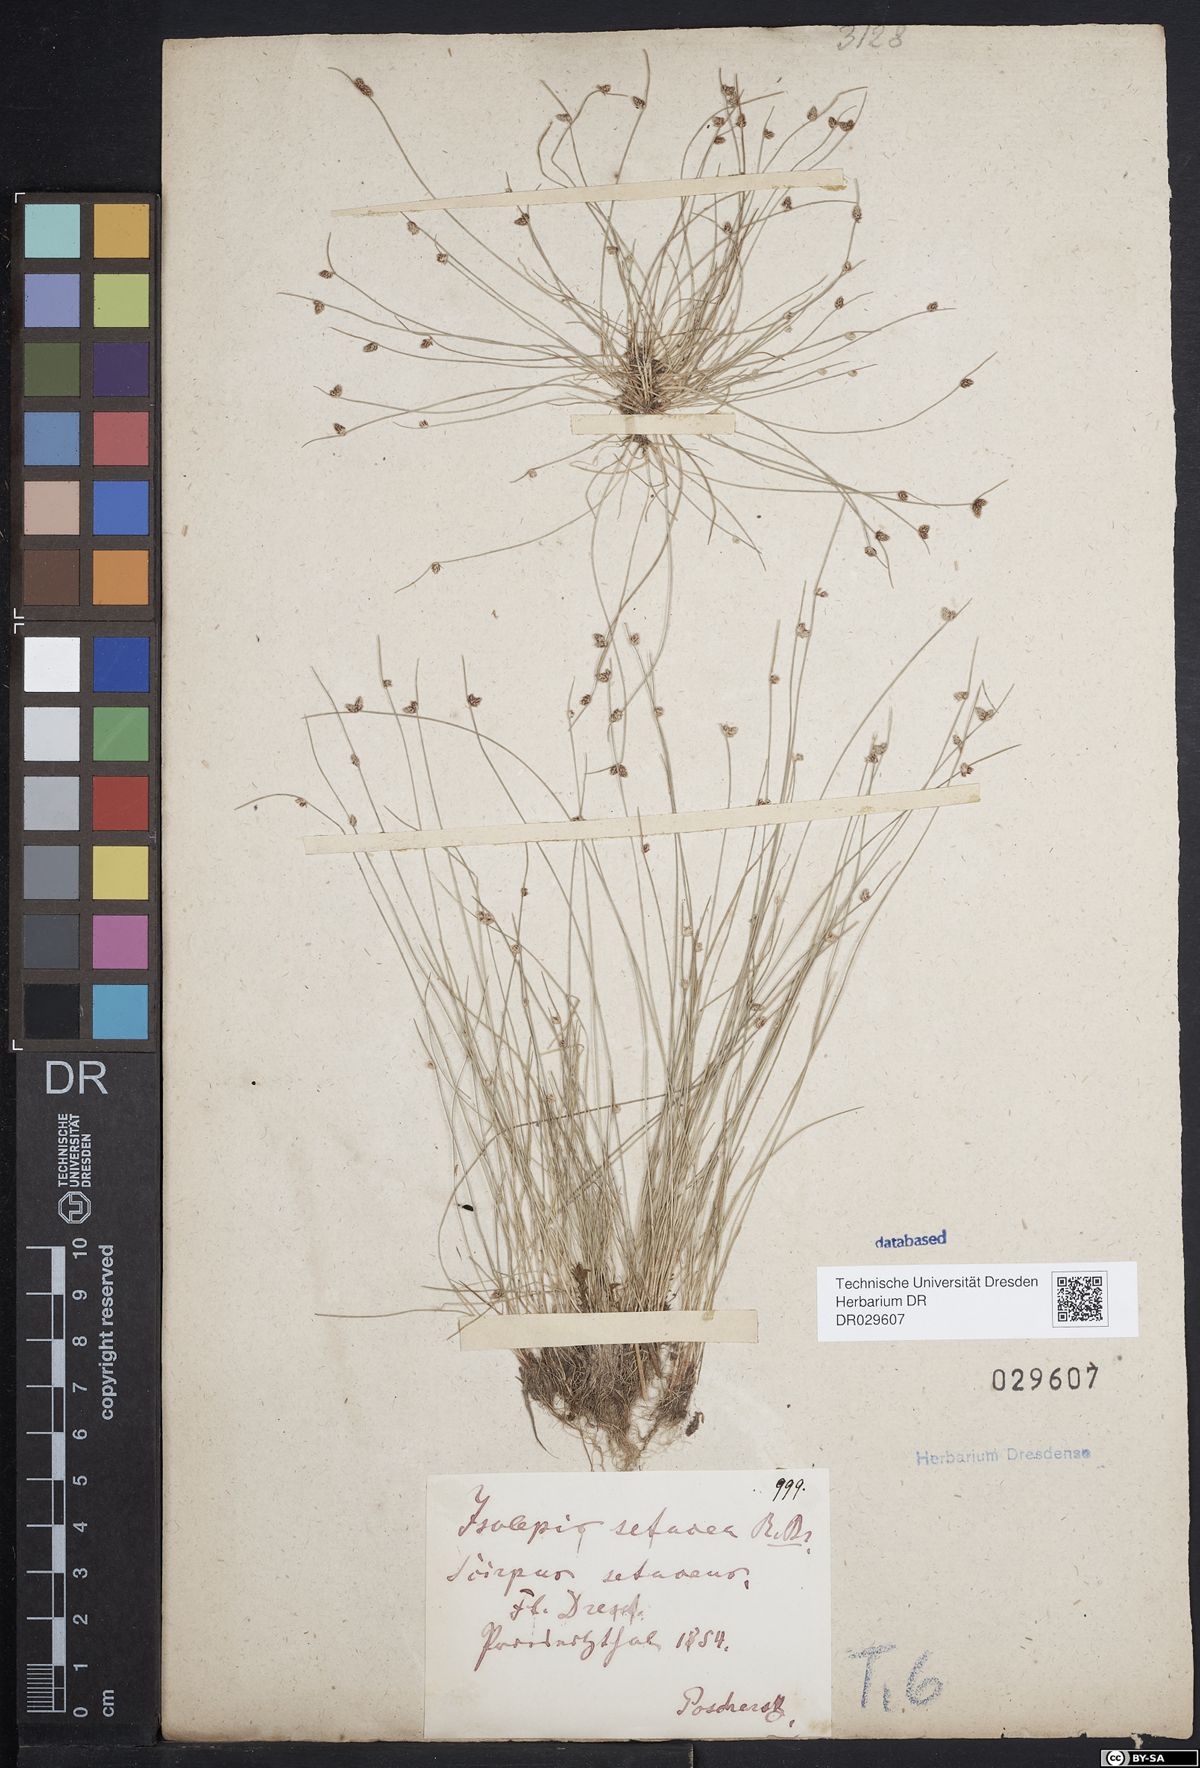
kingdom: Plantae
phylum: Tracheophyta
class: Liliopsida
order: Poales
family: Cyperaceae
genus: Isolepis
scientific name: Isolepis setacea
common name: Bristle club-rush
